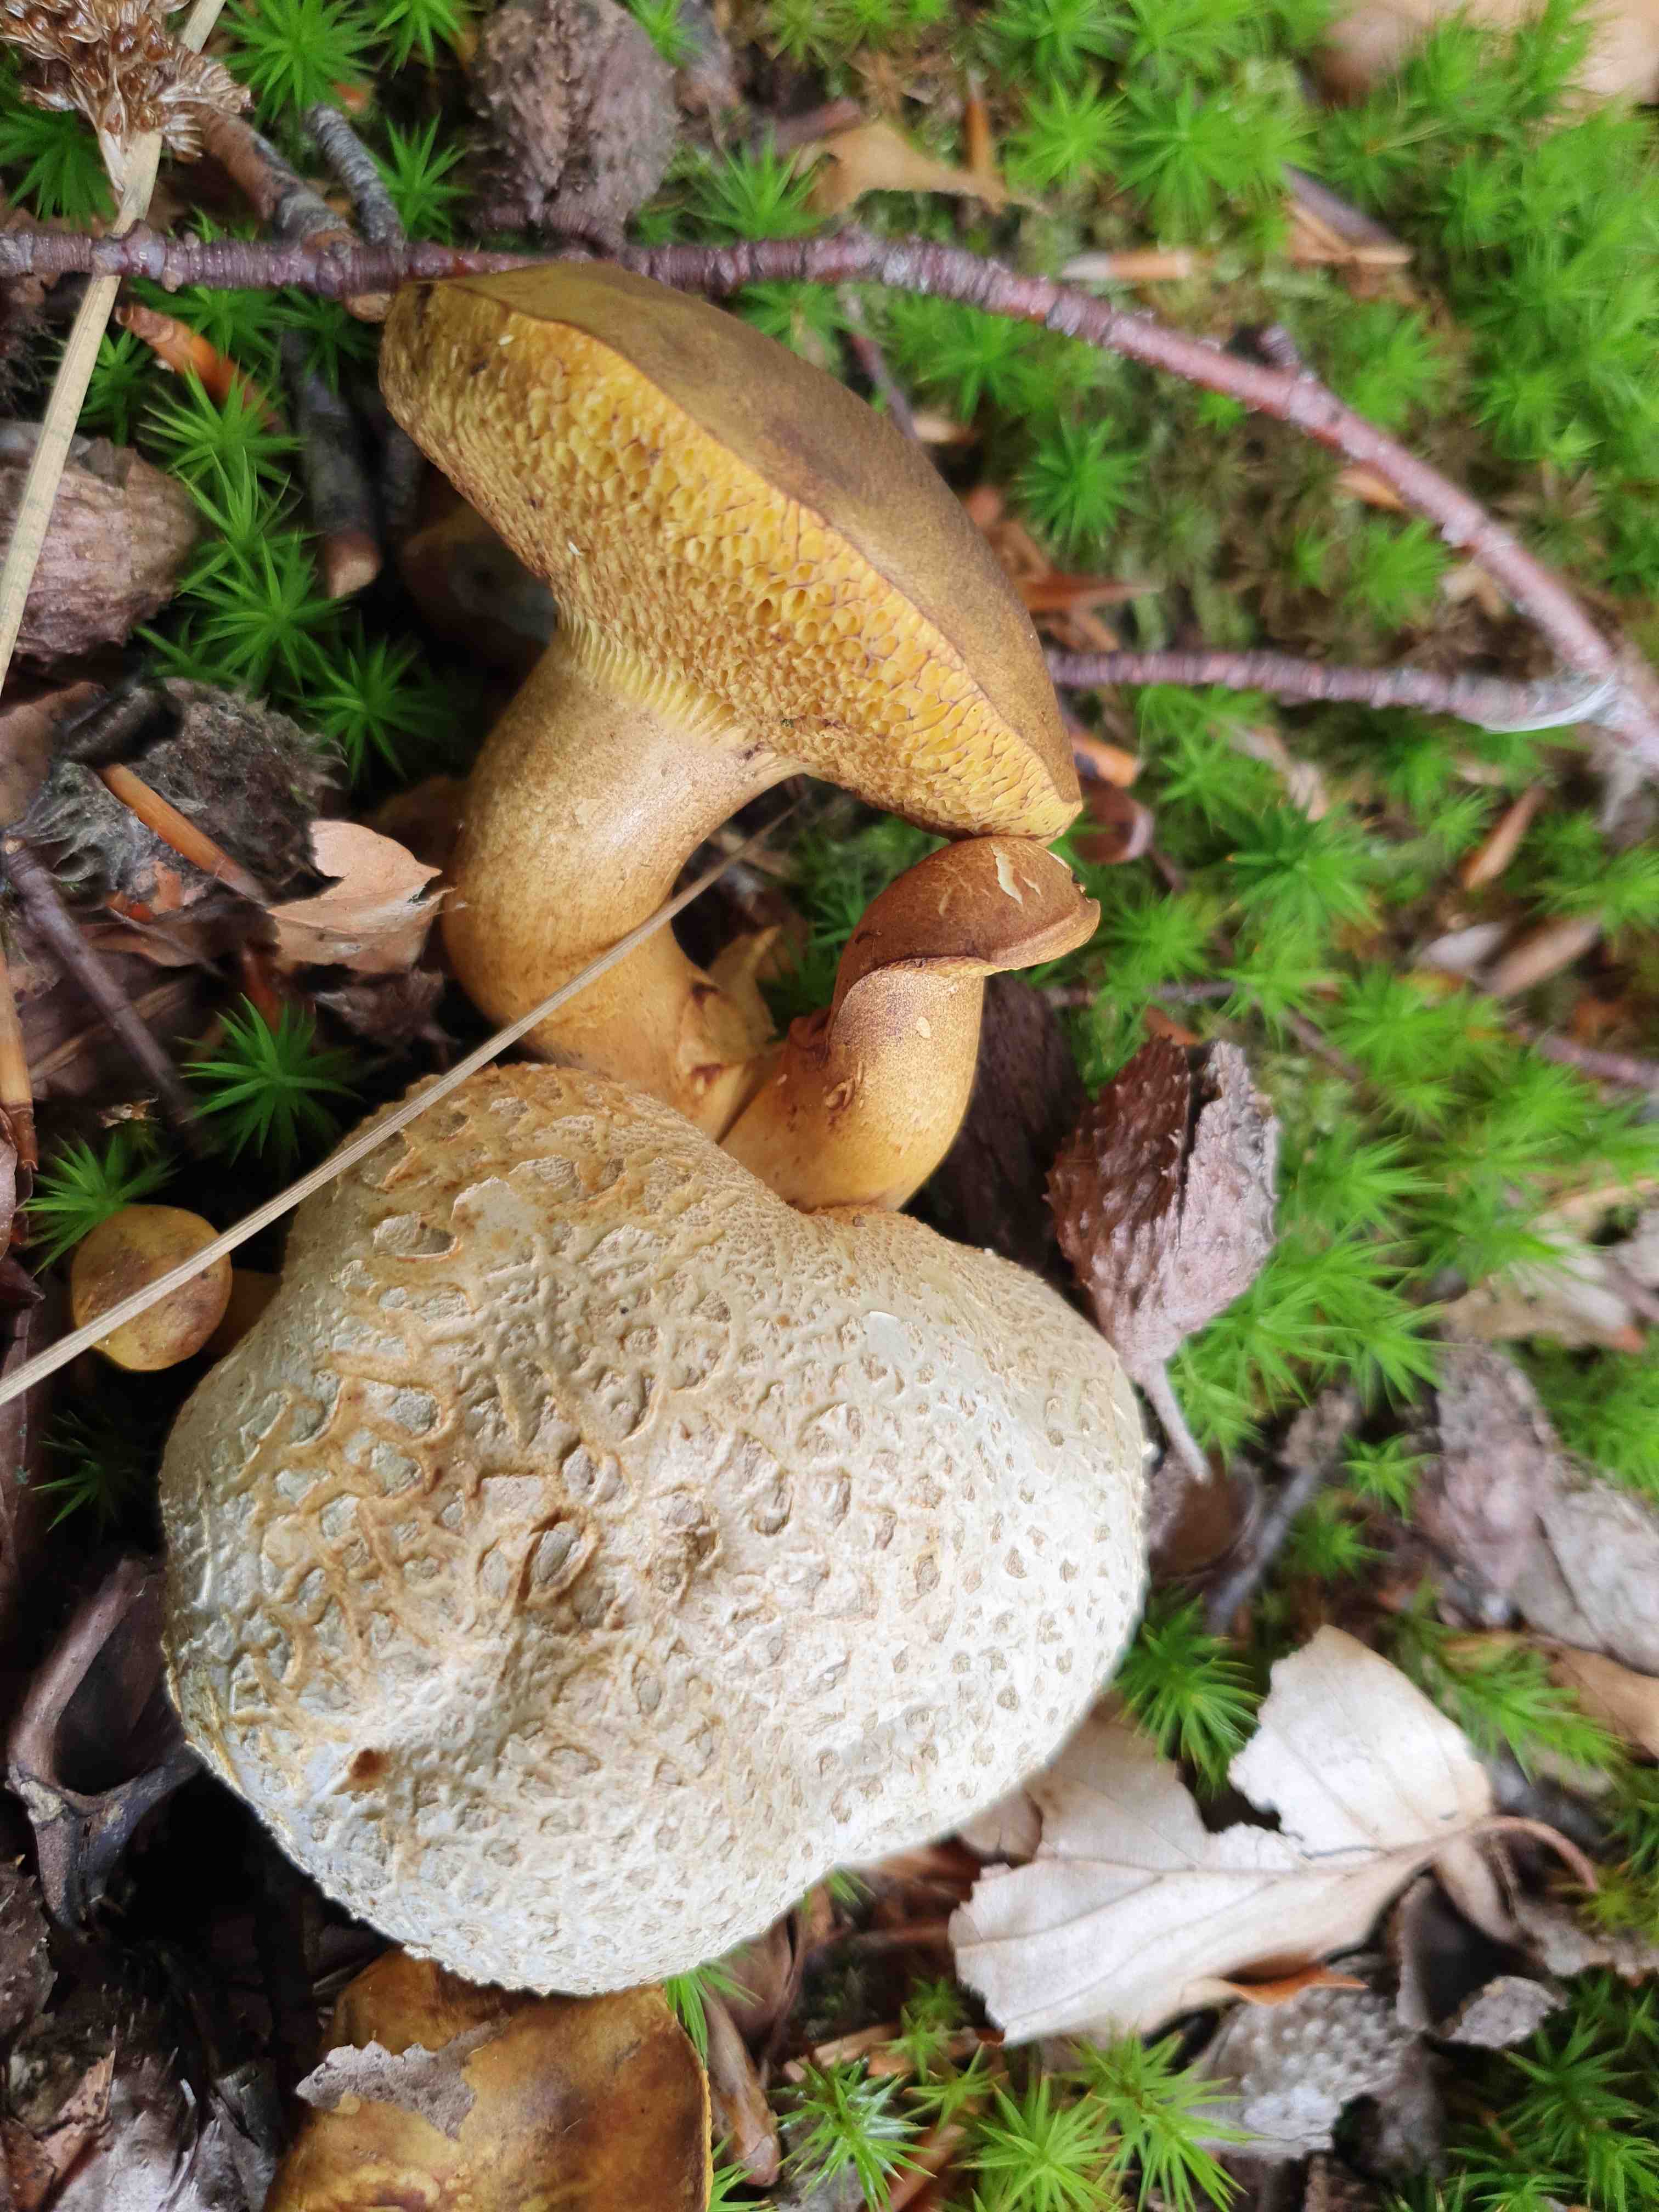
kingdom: Fungi
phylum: Basidiomycota
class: Agaricomycetes
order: Boletales
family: Boletaceae
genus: Pseudoboletus
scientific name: Pseudoboletus parasiticus
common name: snyltende rørhat
